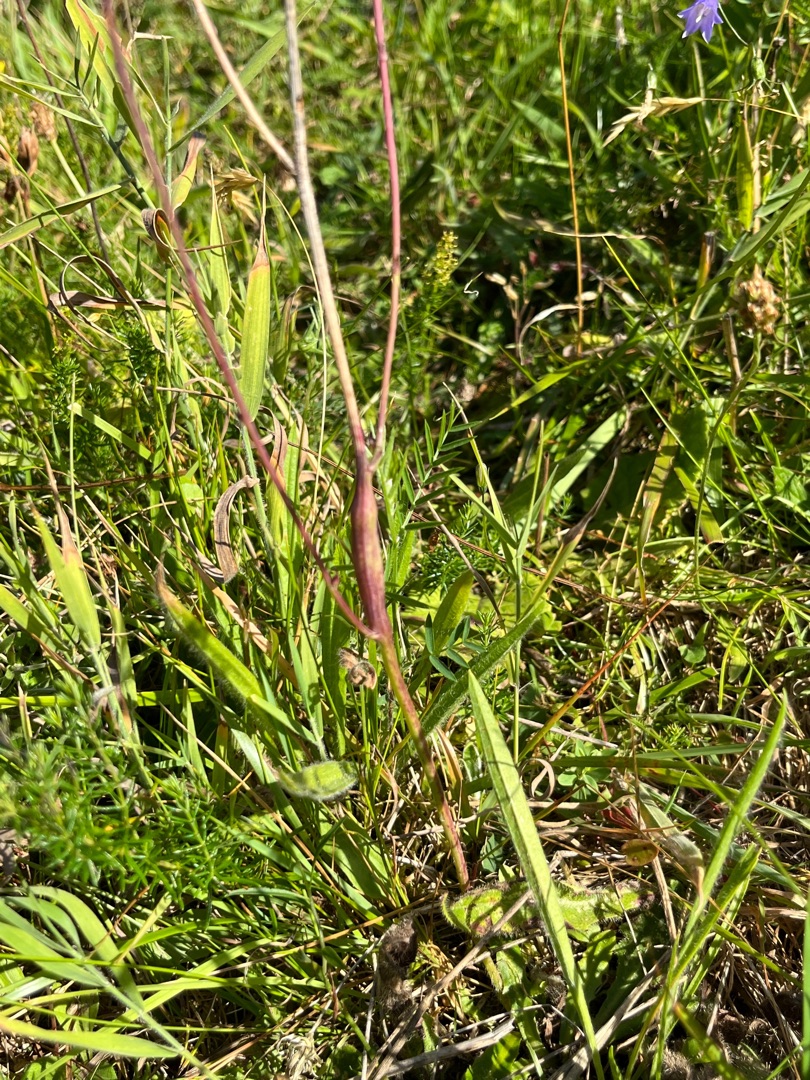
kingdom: Animalia
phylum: Arthropoda
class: Insecta
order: Hymenoptera
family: Cynipidae
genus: Phanacis
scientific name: Phanacis hypochoeridis
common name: Kongepengalhveps
